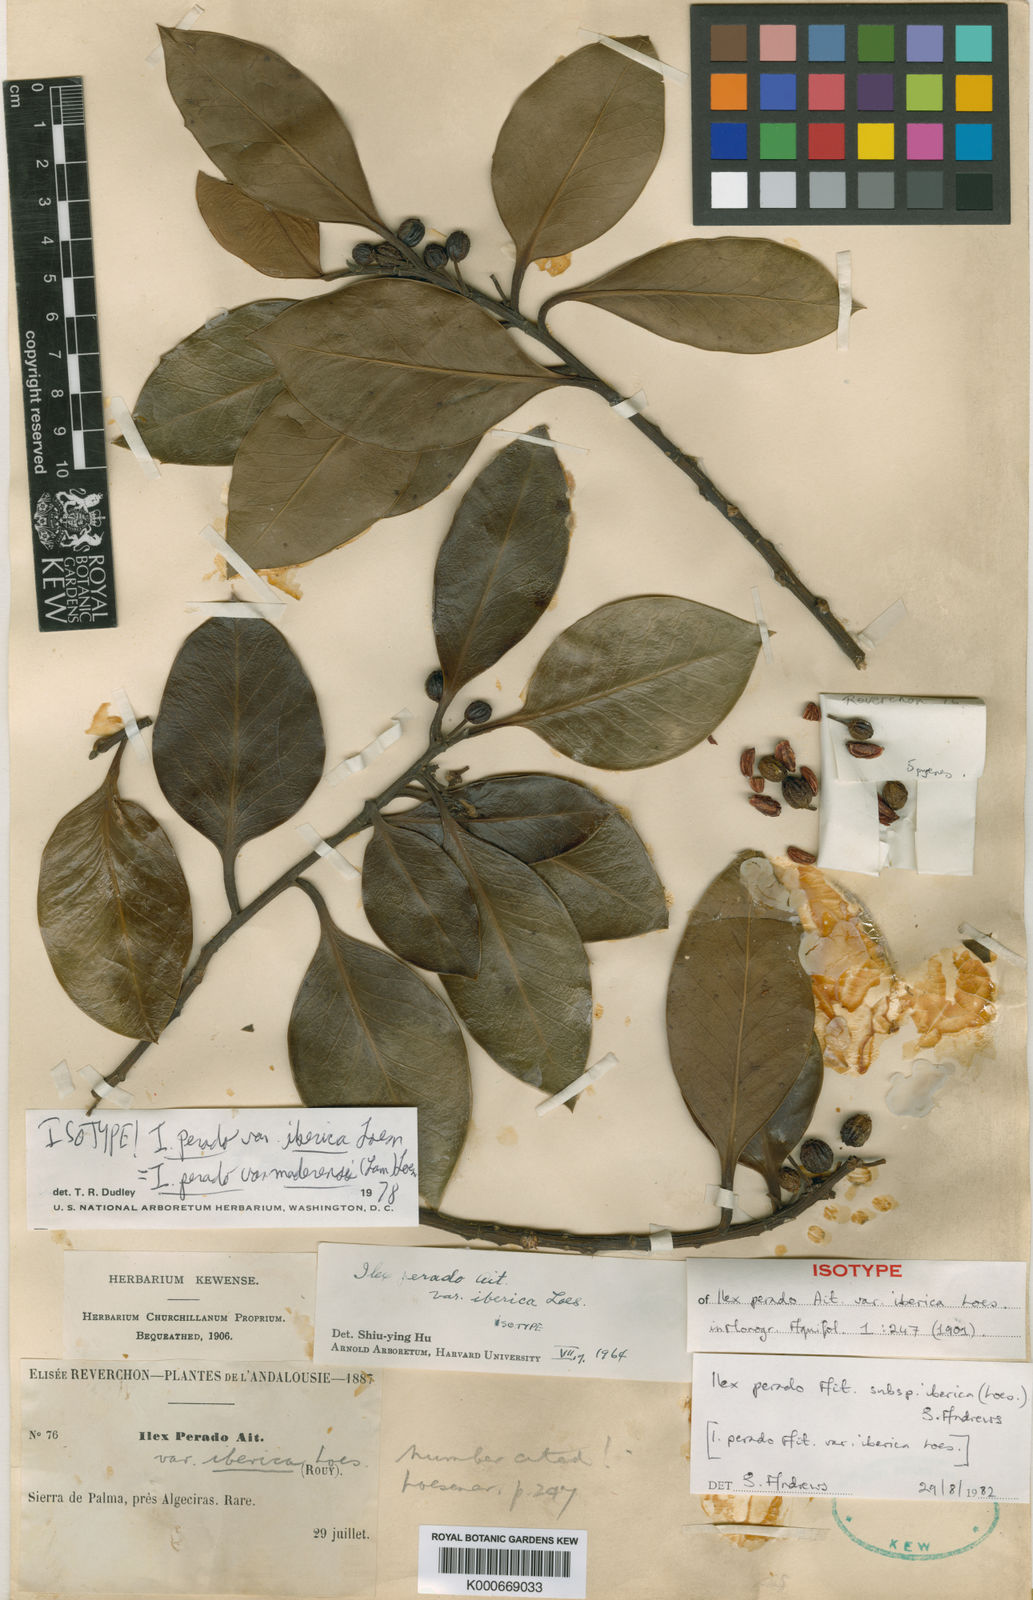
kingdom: Plantae
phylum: Tracheophyta
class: Magnoliopsida
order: Aquifoliales
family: Aquifoliaceae
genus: Ilex
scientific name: Ilex aquifolium
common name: English holly
